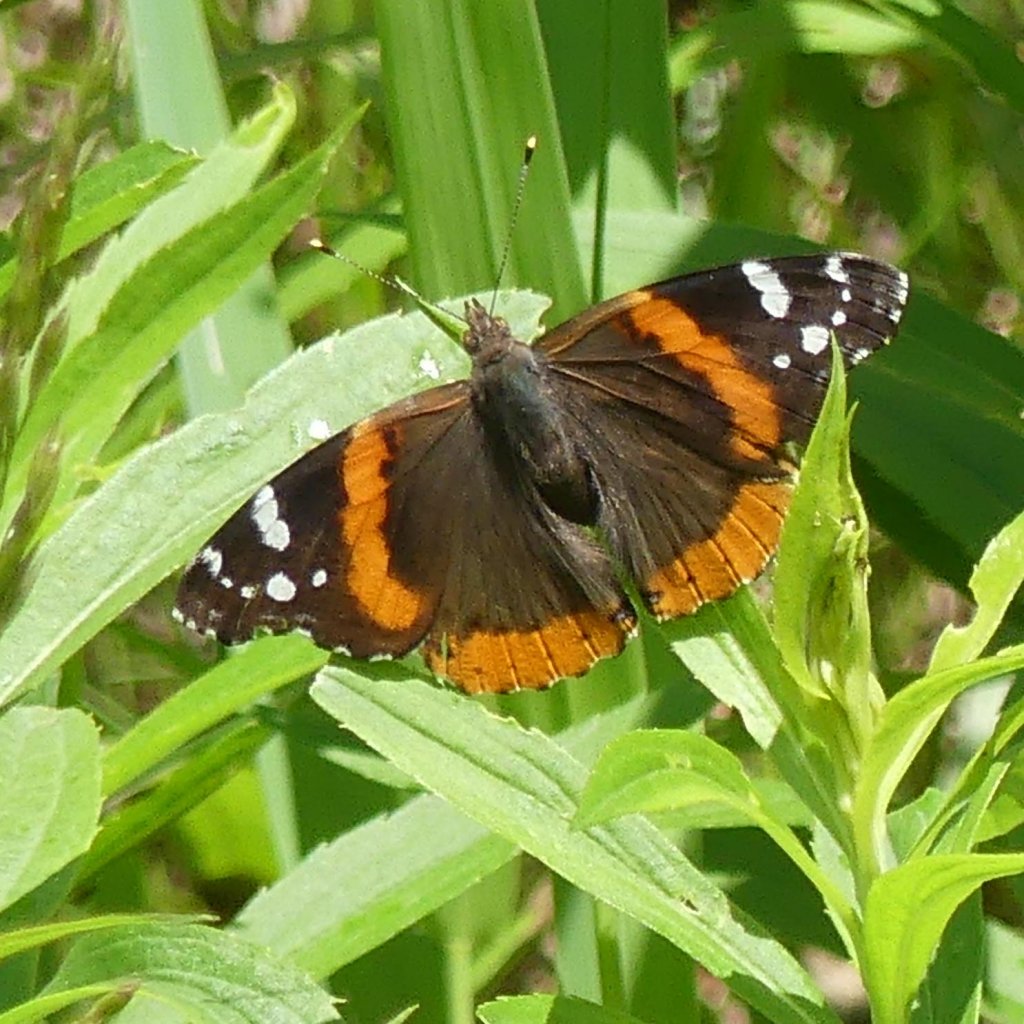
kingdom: Animalia
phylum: Arthropoda
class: Insecta
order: Lepidoptera
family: Nymphalidae
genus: Vanessa
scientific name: Vanessa atalanta
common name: Red Admiral
